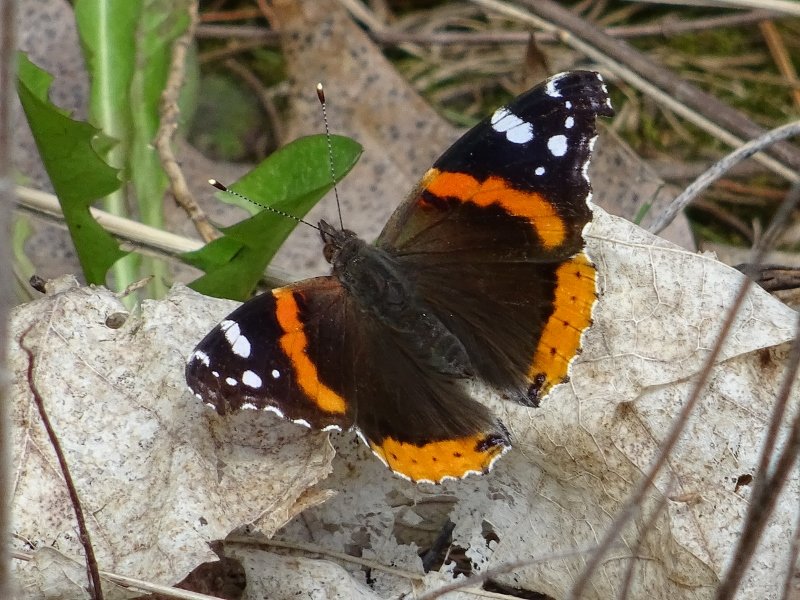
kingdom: Animalia
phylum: Arthropoda
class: Insecta
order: Lepidoptera
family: Nymphalidae
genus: Vanessa
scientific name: Vanessa atalanta
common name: Red Admiral
